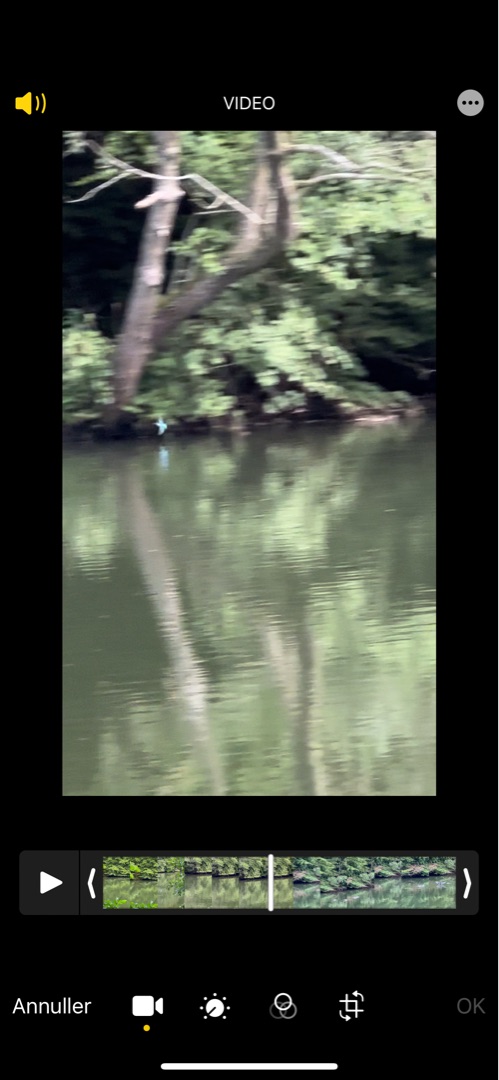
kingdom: Animalia
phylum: Chordata
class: Aves
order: Coraciiformes
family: Alcedinidae
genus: Alcedo
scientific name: Alcedo atthis
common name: Isfugl
